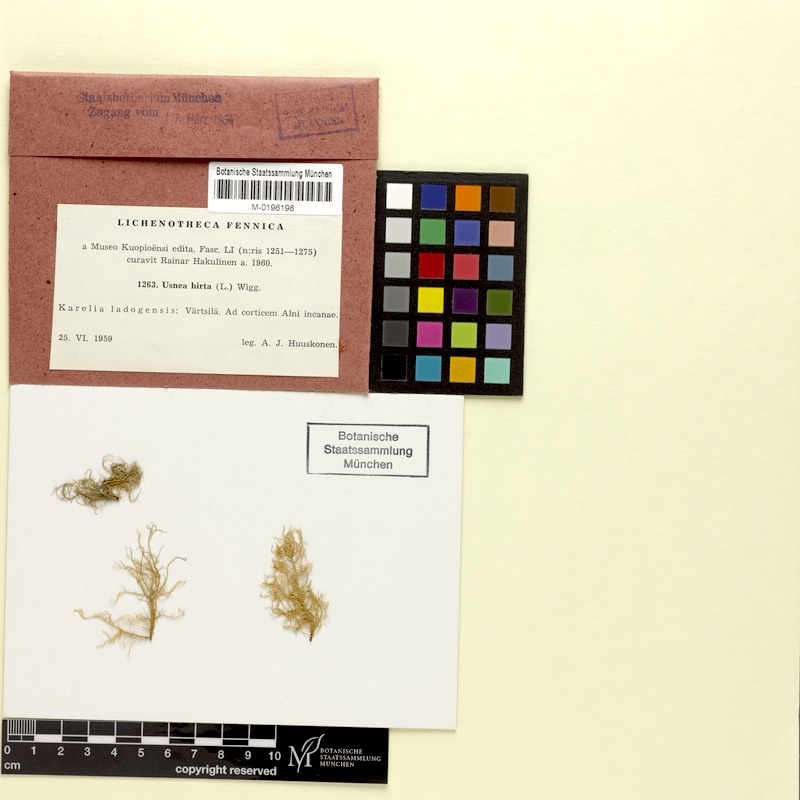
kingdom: Fungi
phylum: Ascomycota
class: Lecanoromycetes
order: Lecanorales
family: Parmeliaceae
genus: Usnea
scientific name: Usnea hirta
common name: Bristly beard lichen
